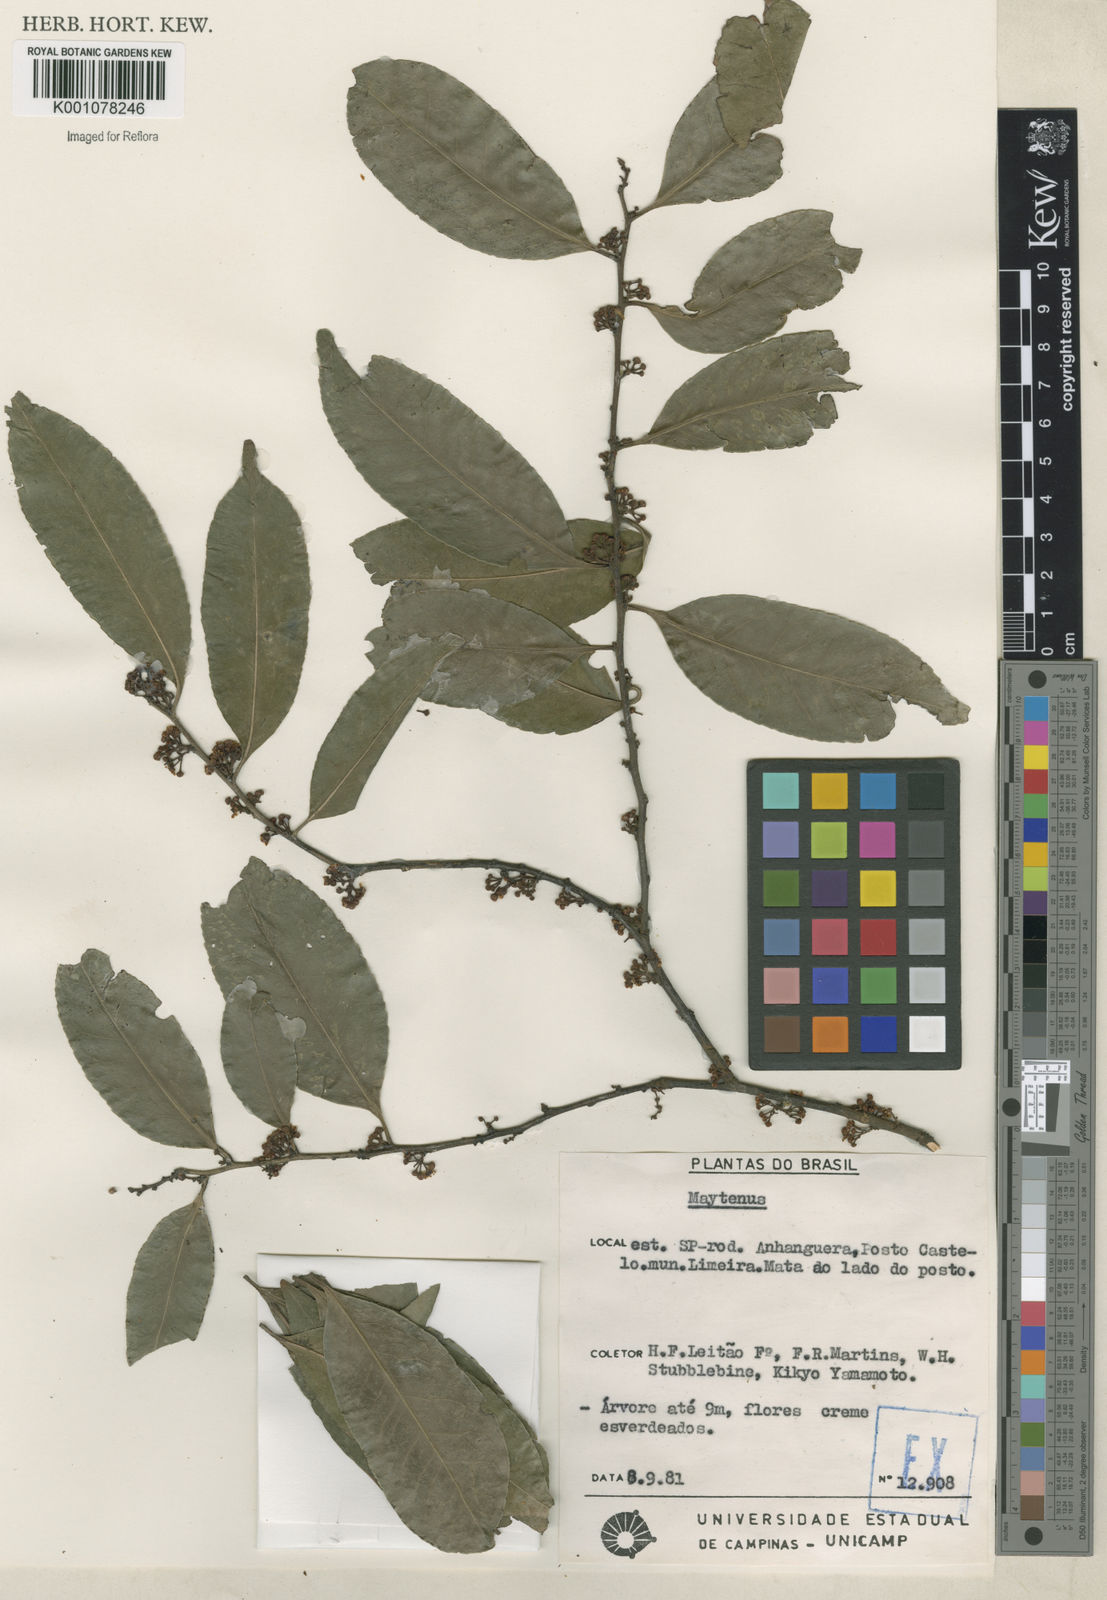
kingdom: Plantae
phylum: Tracheophyta
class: Magnoliopsida
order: Celastrales
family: Celastraceae
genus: Maytenus
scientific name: Maytenus
